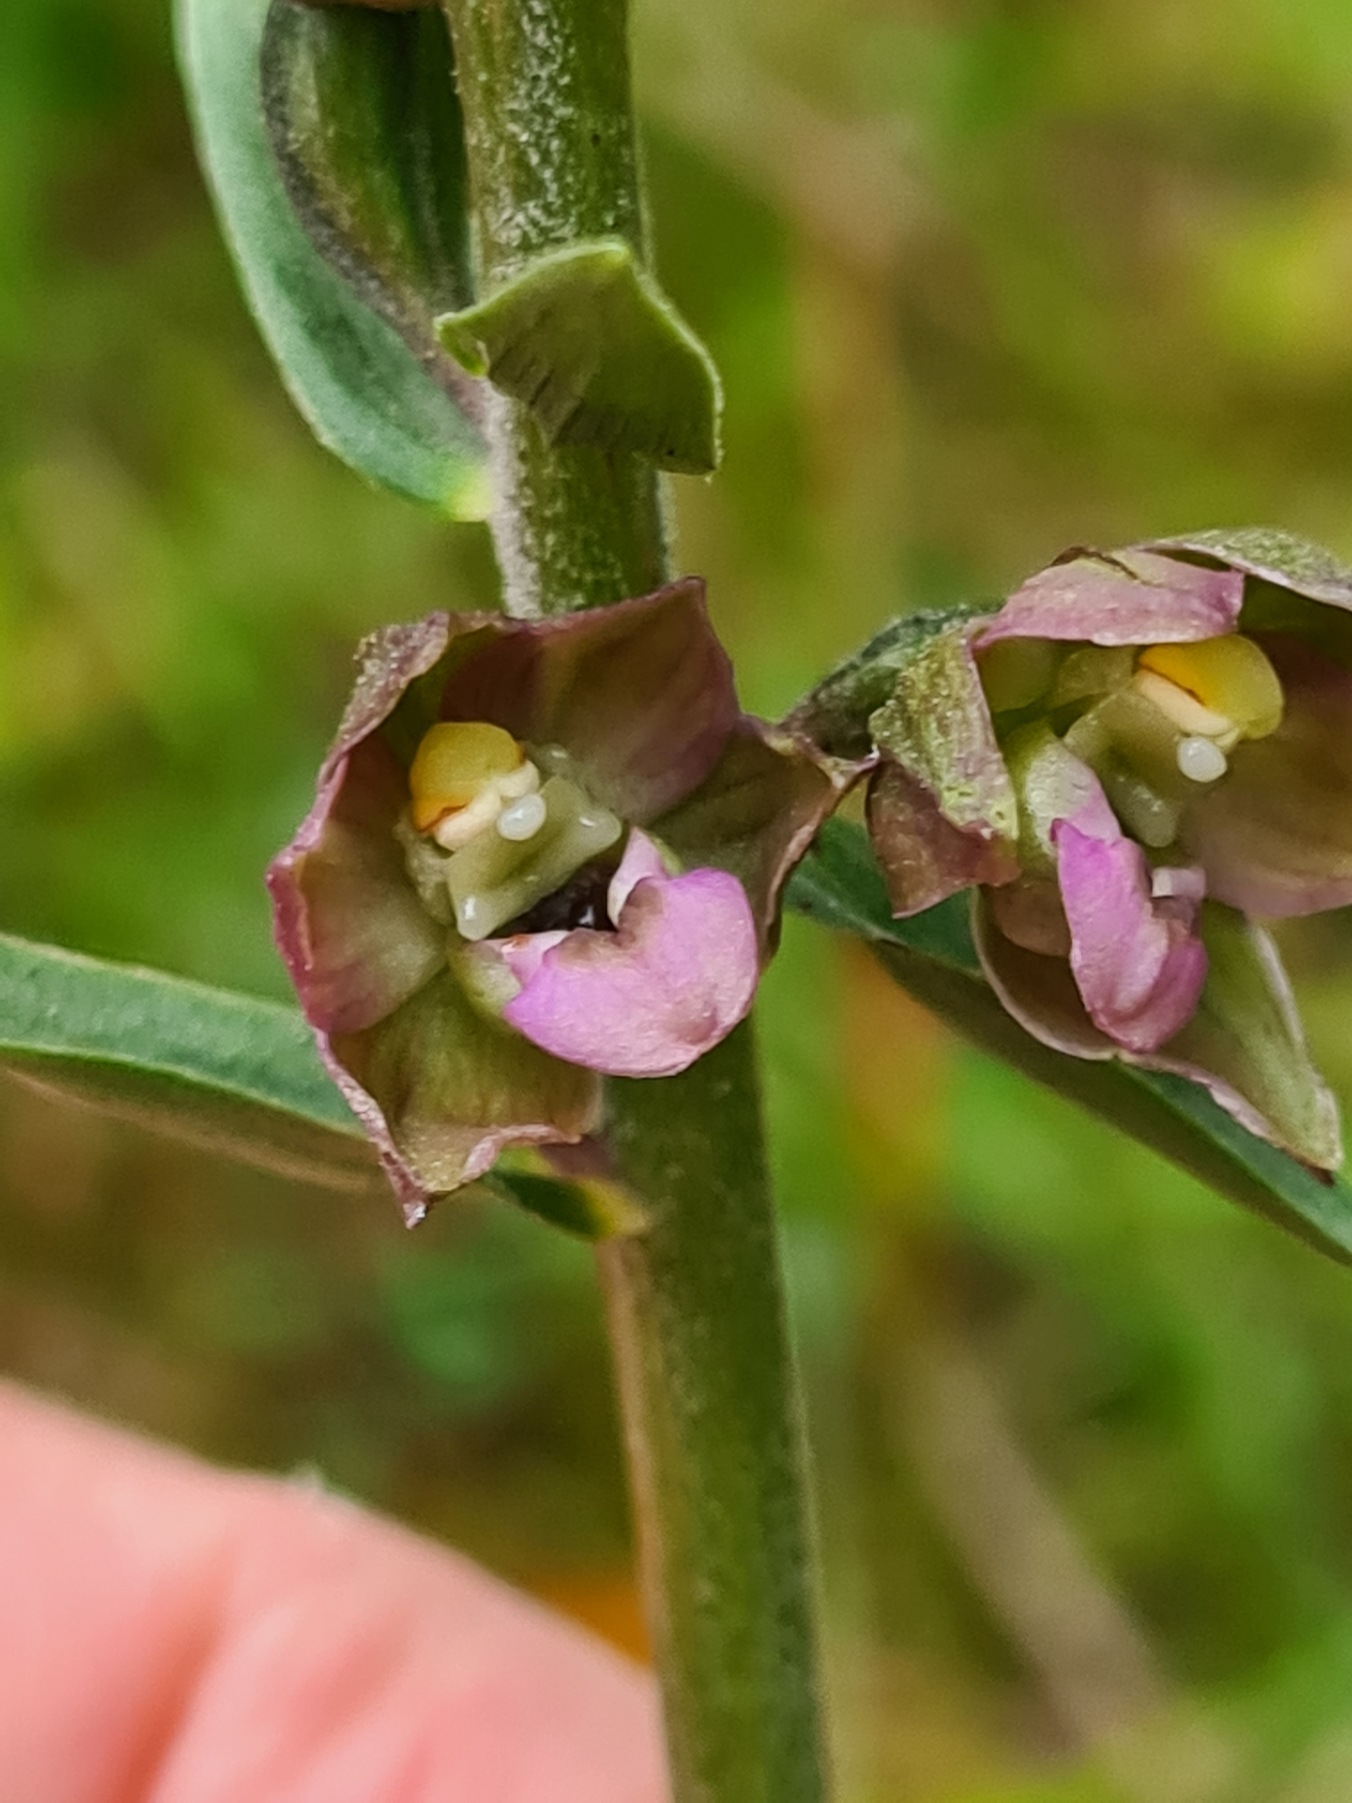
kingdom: Plantae
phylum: Tracheophyta
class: Liliopsida
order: Asparagales
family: Orchidaceae
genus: Epipactis
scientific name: Epipactis helleborine
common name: Hollandsk hullæbe
